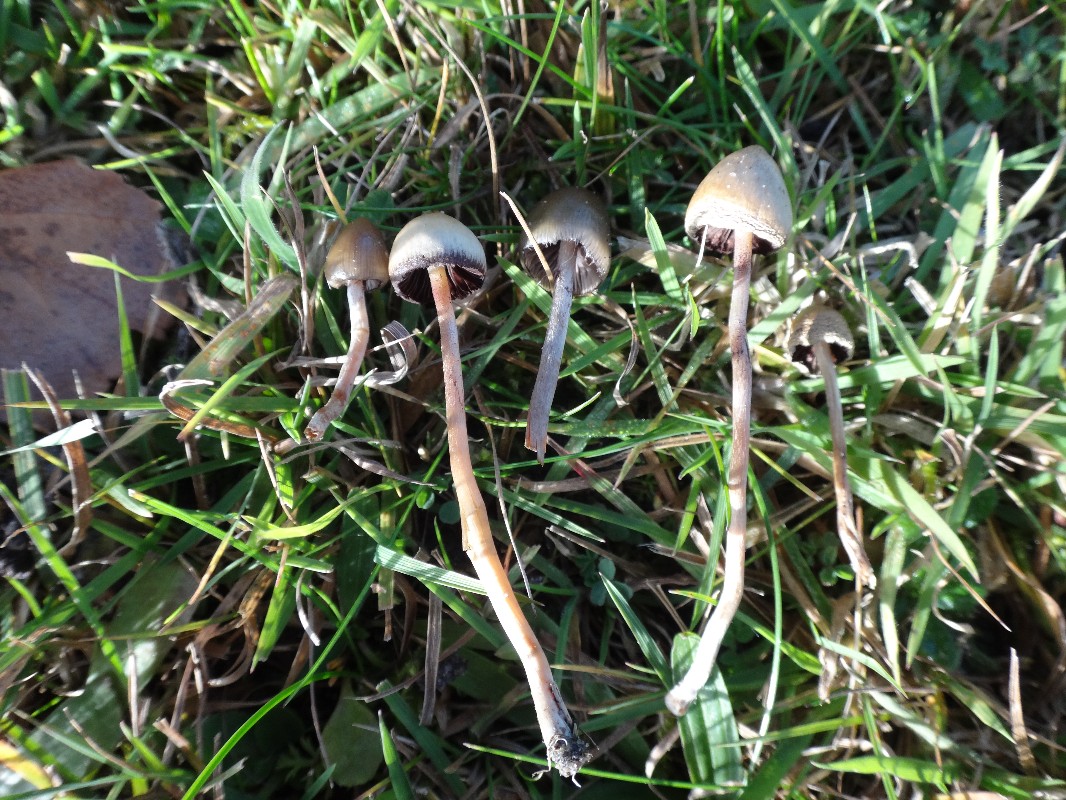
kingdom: Fungi
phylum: Basidiomycota
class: Agaricomycetes
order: Agaricales
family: Hymenogastraceae
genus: Psilocybe
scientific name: Psilocybe semilanceata
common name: spids nøgenhat
